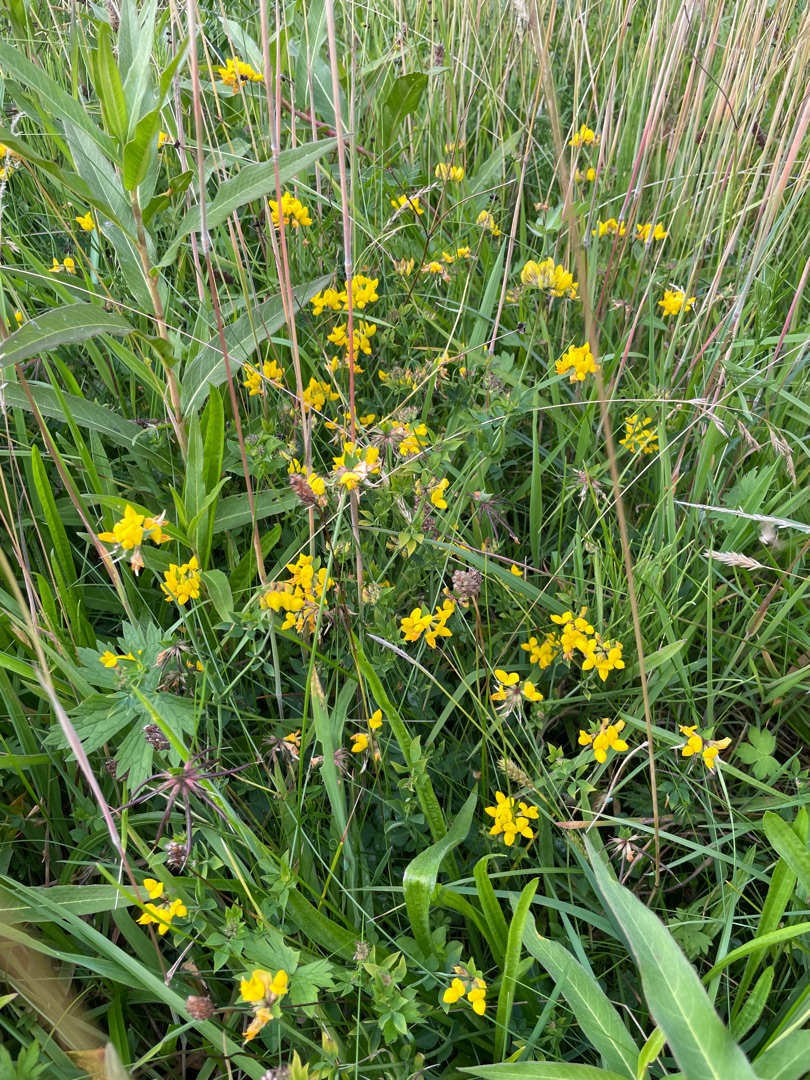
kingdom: Plantae
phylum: Tracheophyta
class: Magnoliopsida
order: Fabales
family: Fabaceae
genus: Lotus
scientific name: Lotus pedunculatus
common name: Sump-kællingetand
